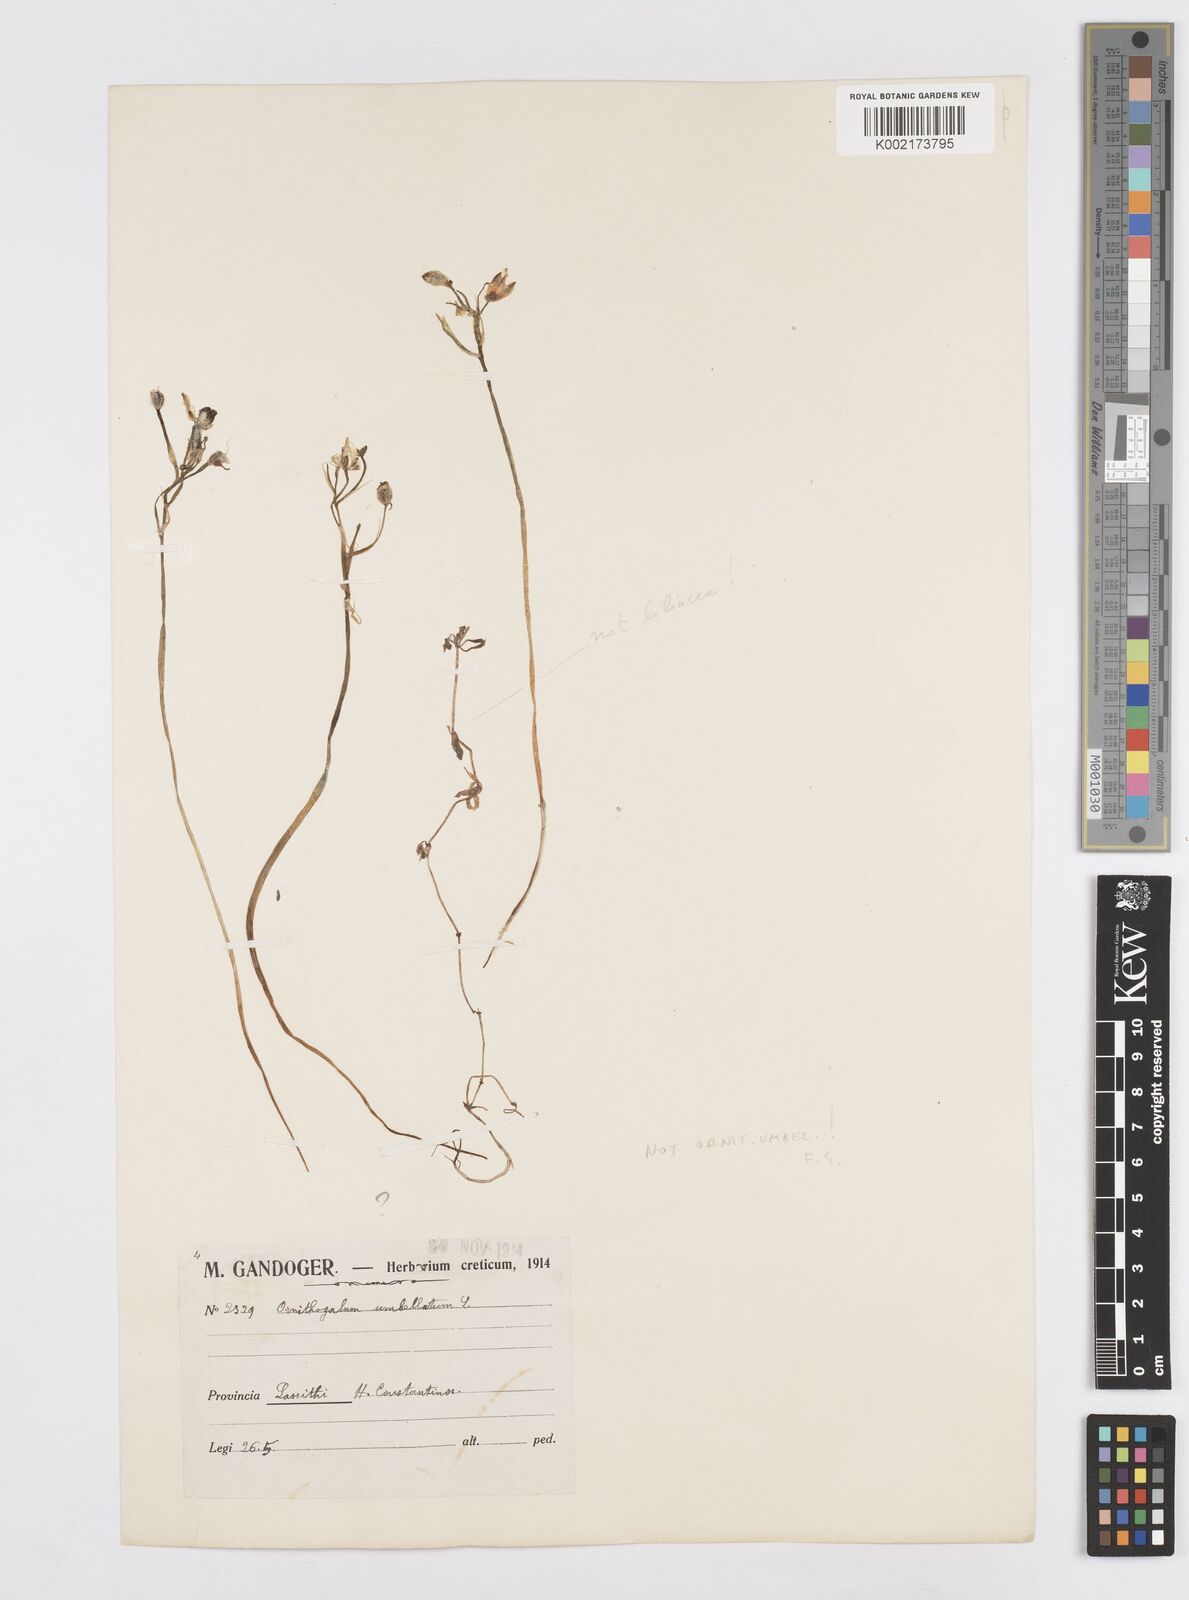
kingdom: Plantae
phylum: Tracheophyta
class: Liliopsida
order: Asparagales
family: Asparagaceae
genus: Ornithogalum
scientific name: Ornithogalum umbellatum
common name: Garden star-of-bethlehem
